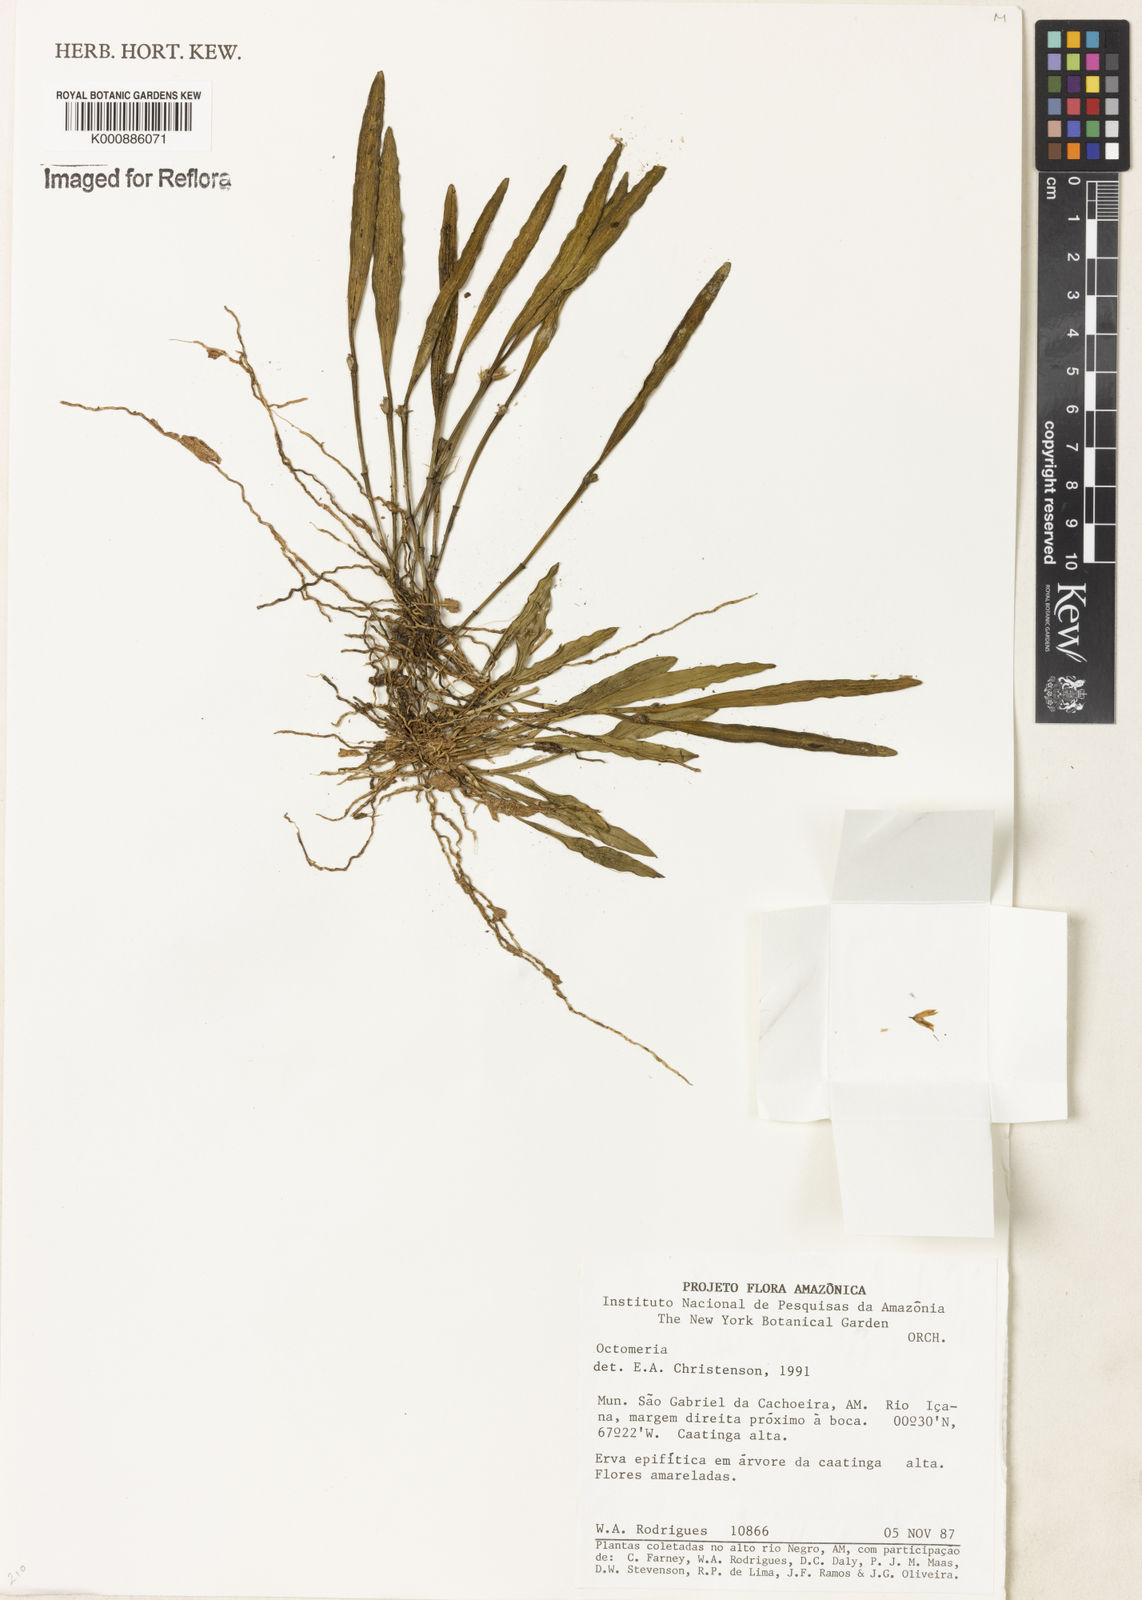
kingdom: Plantae
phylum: Tracheophyta
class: Liliopsida
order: Asparagales
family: Orchidaceae
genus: Octomeria
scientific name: Octomeria
